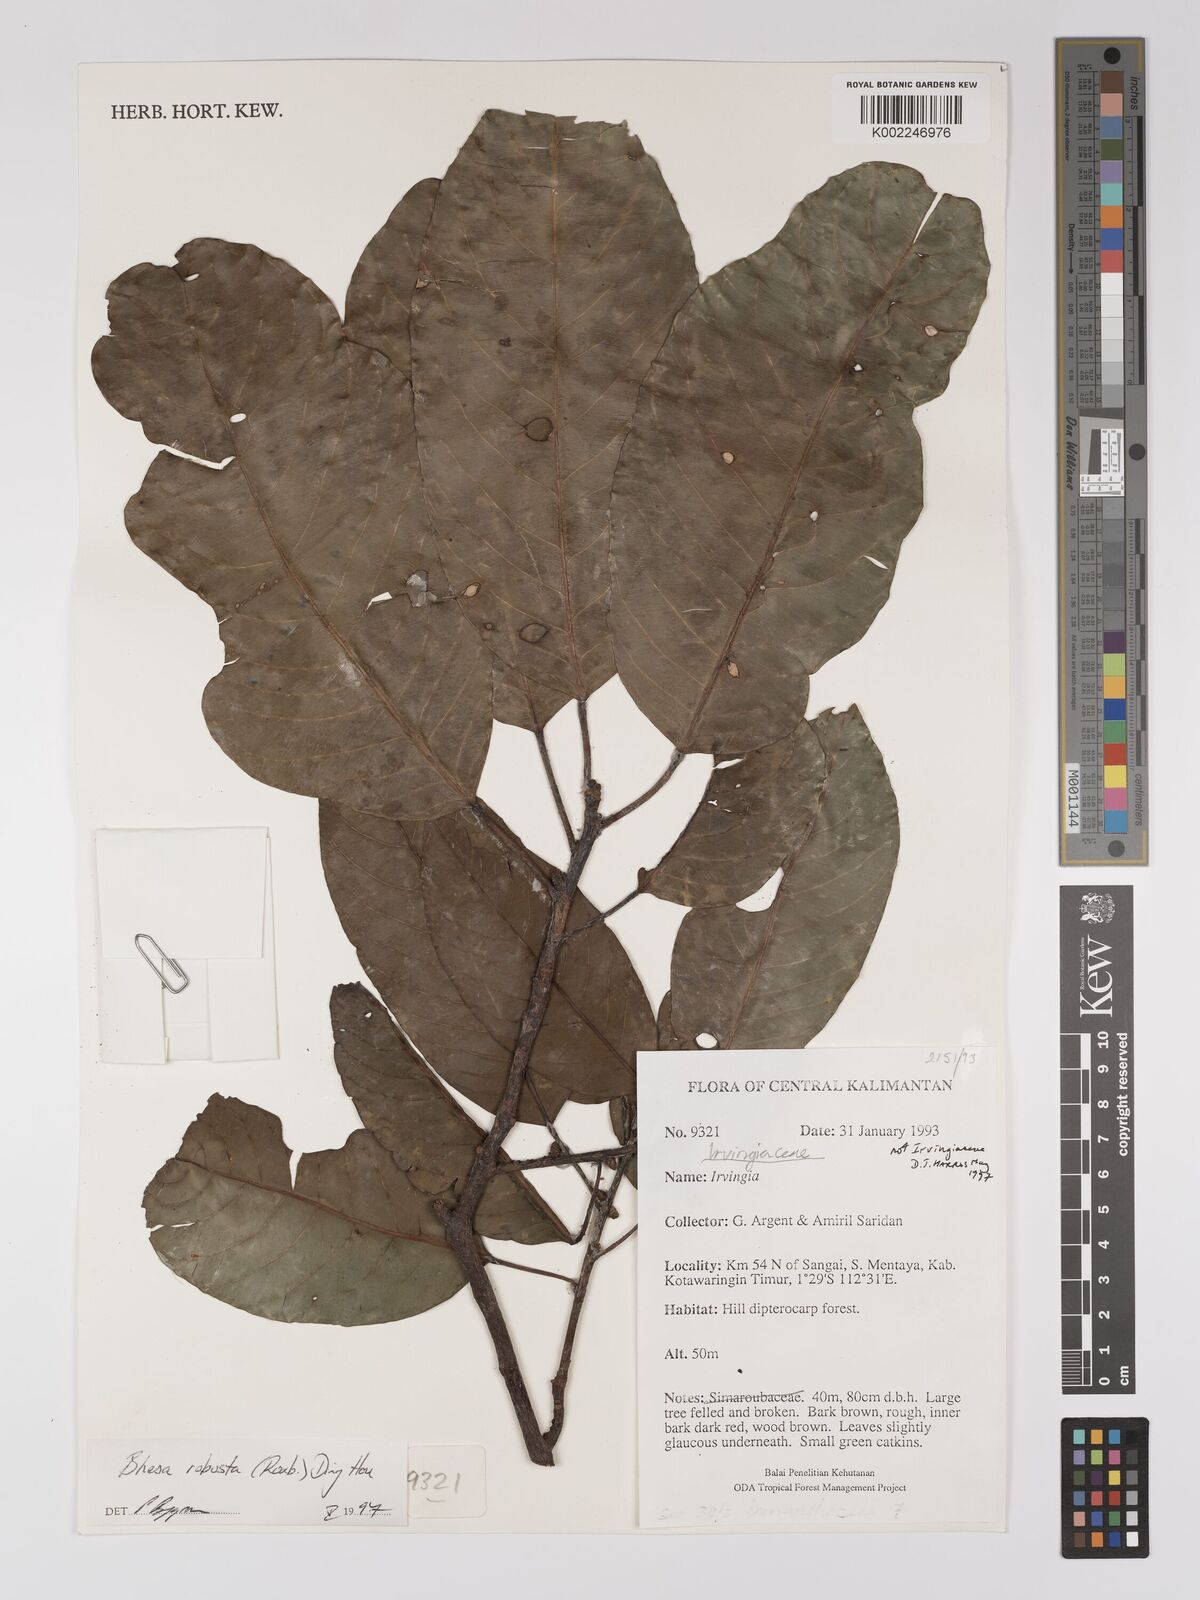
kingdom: Plantae
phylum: Tracheophyta
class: Magnoliopsida
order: Malpighiales
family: Centroplacaceae
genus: Bhesa
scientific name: Bhesa robusta
